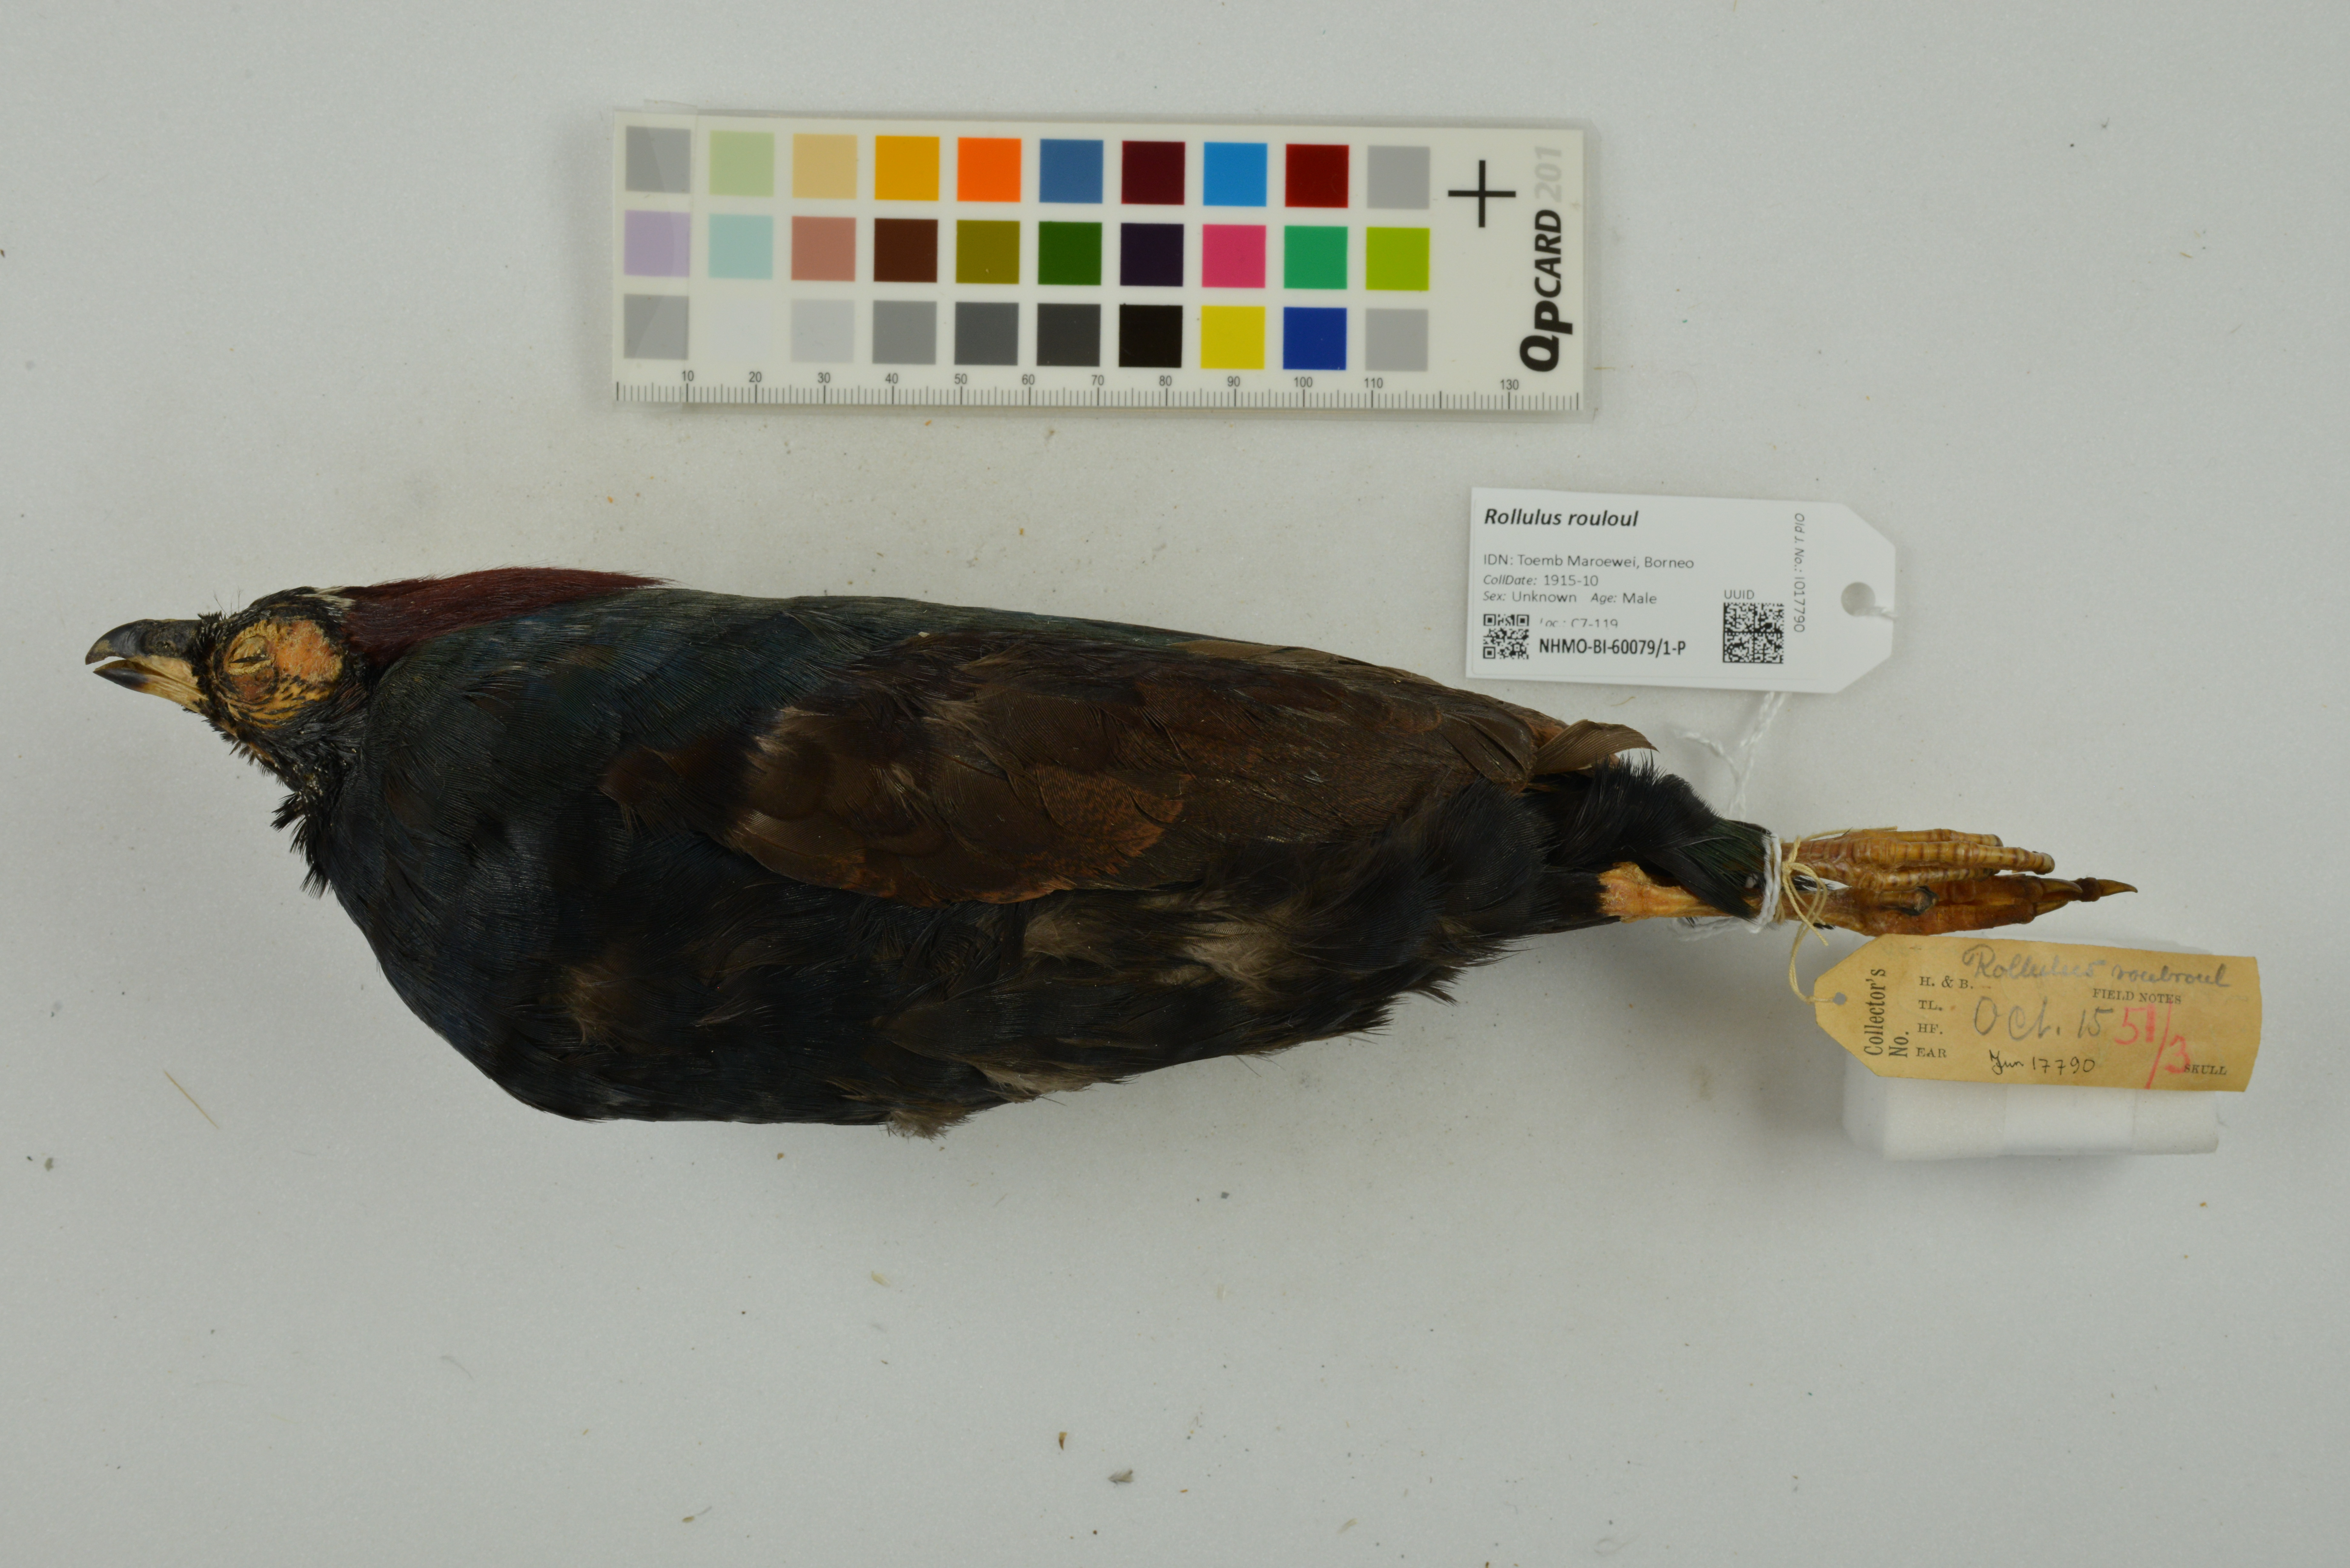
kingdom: Animalia
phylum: Chordata
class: Aves
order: Galliformes
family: Phasianidae
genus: Rollulus
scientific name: Rollulus rouloul
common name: Crested partridge
